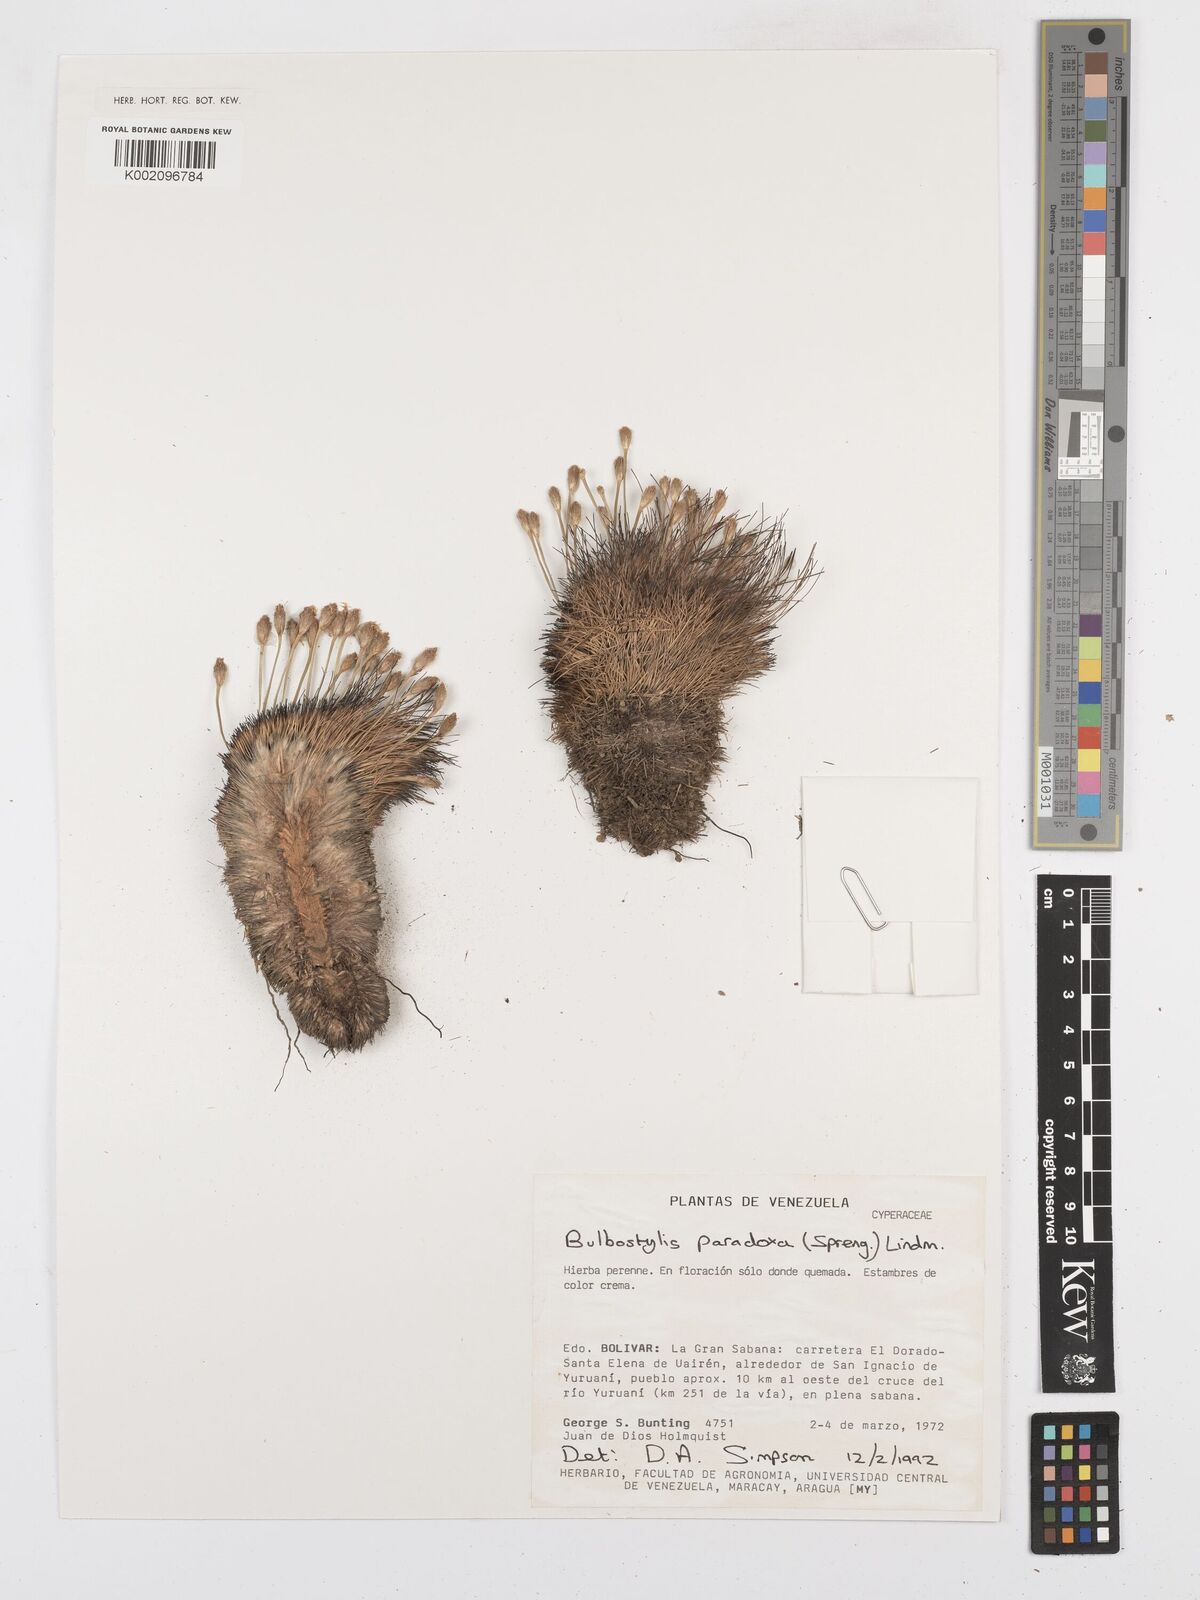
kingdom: Plantae
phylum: Tracheophyta
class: Liliopsida
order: Poales
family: Cyperaceae
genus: Bulbostylis
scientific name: Bulbostylis paradoxa
